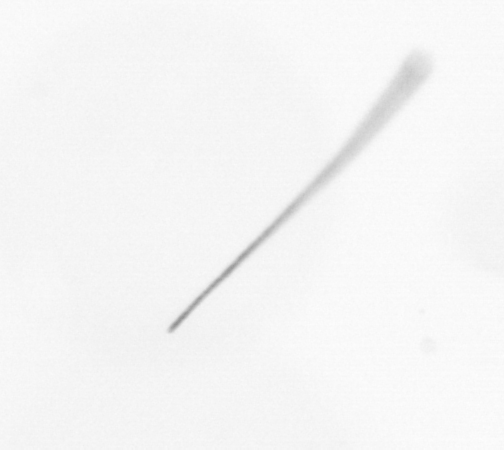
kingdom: Chromista
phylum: Ochrophyta
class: Bacillariophyceae
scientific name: Bacillariophyceae
